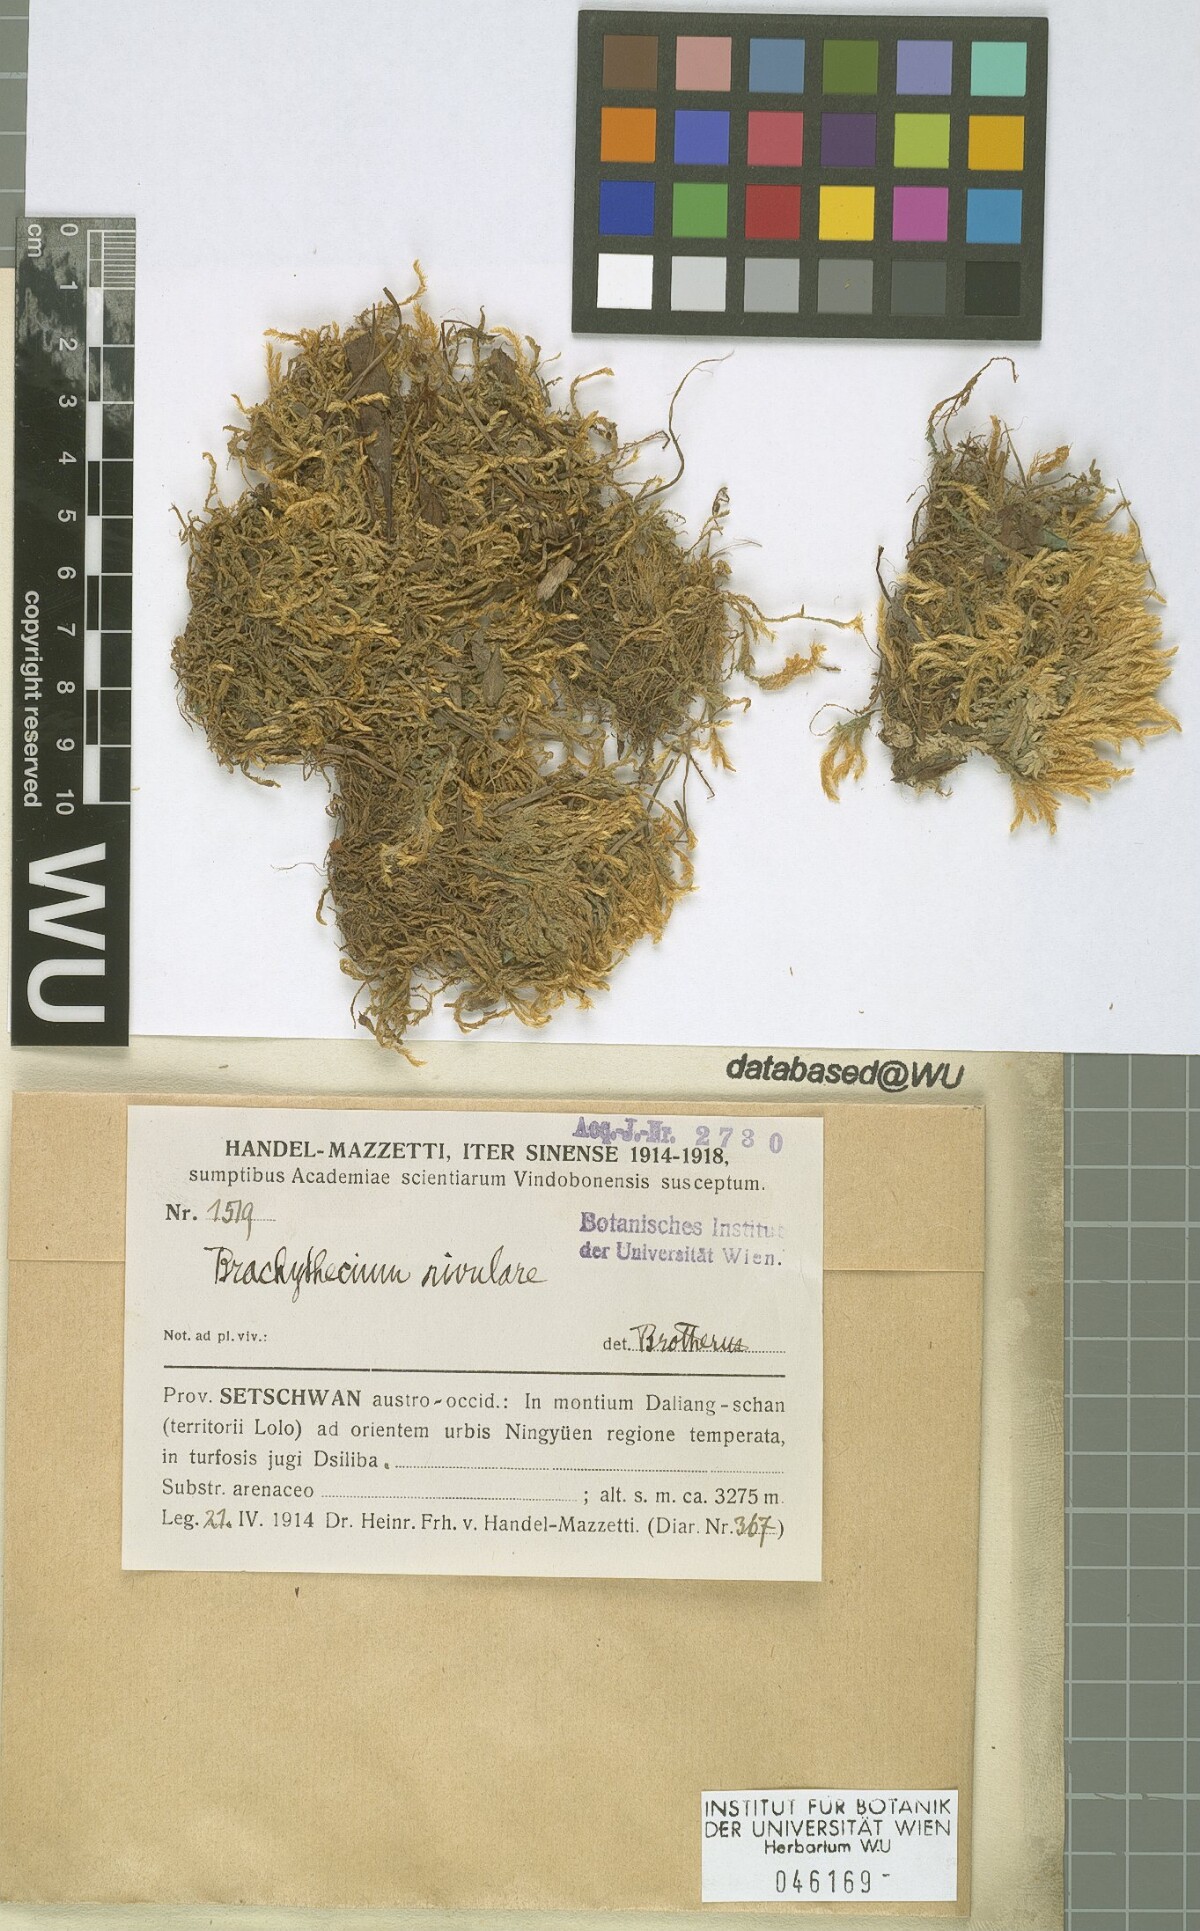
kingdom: Plantae
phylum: Bryophyta
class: Bryopsida
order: Hypnales
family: Brachytheciaceae
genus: Brachythecium
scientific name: Brachythecium rivulare
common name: River ragged moss
